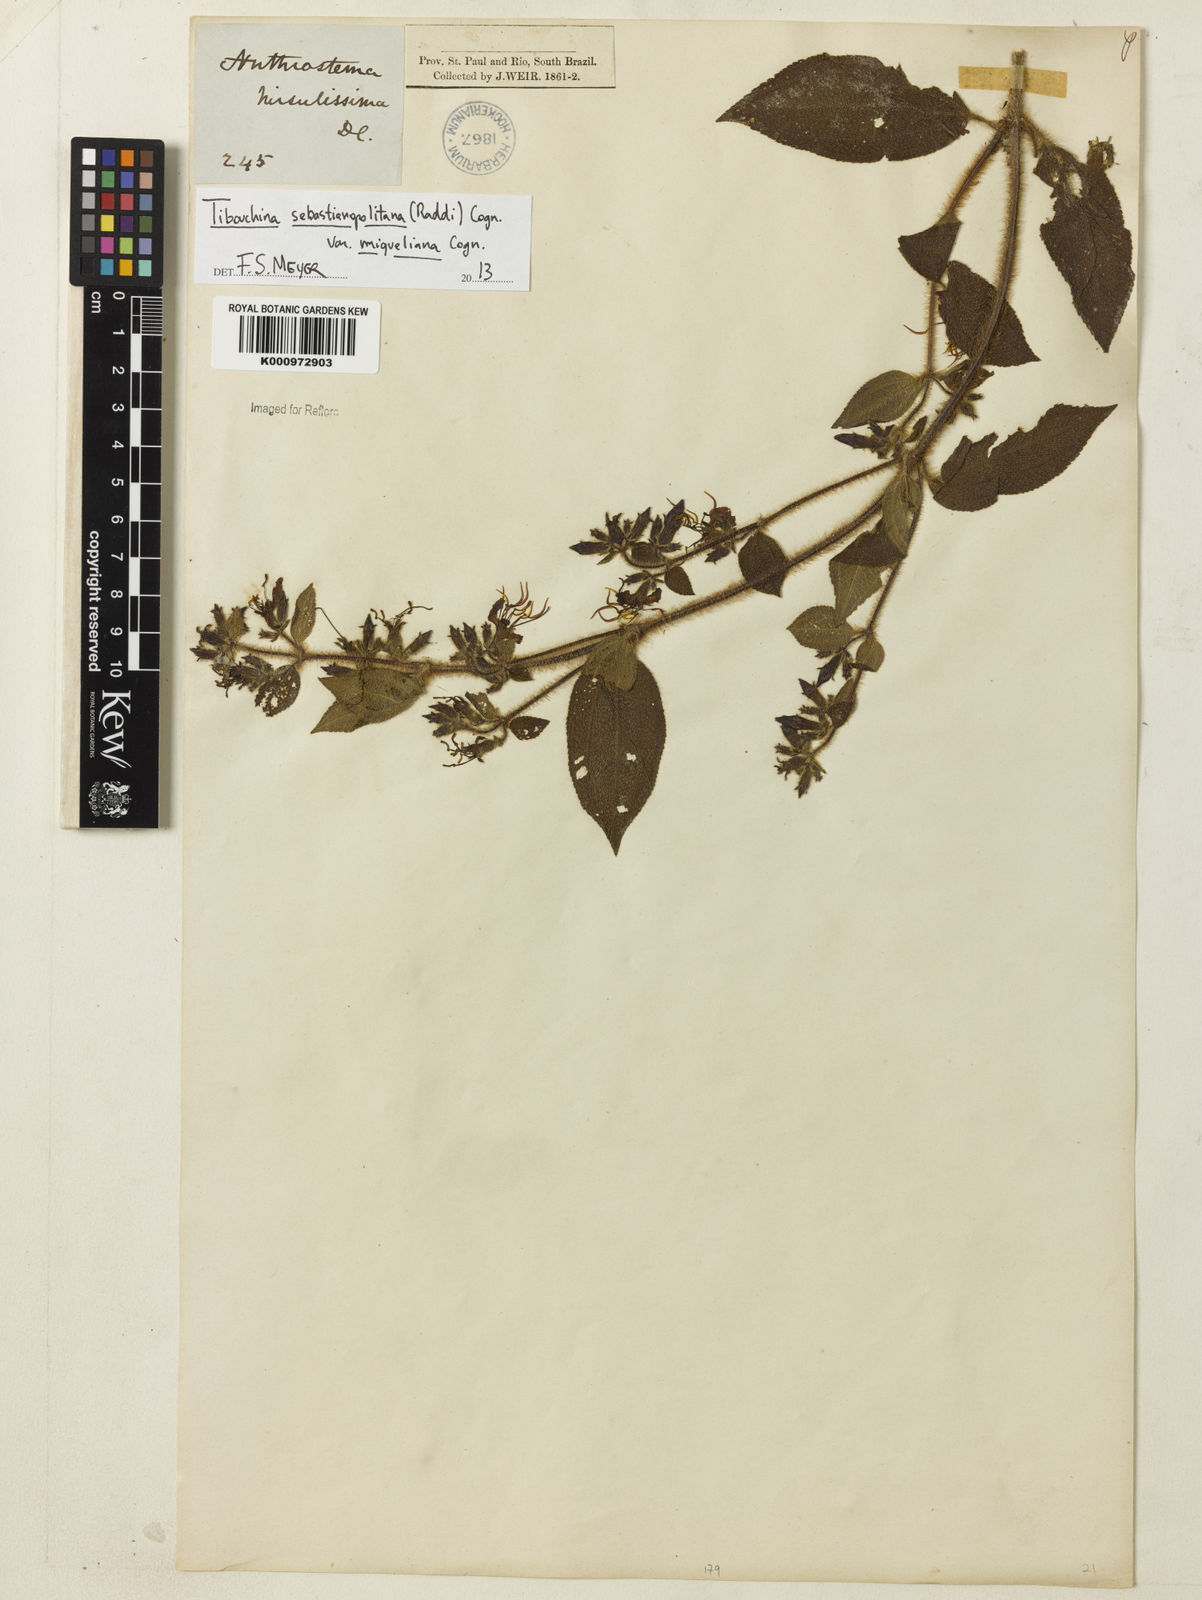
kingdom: Plantae
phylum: Tracheophyta
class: Magnoliopsida
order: Myrtales
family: Melastomataceae
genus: Chaetogastra
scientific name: Chaetogastra sebastianopolitana
